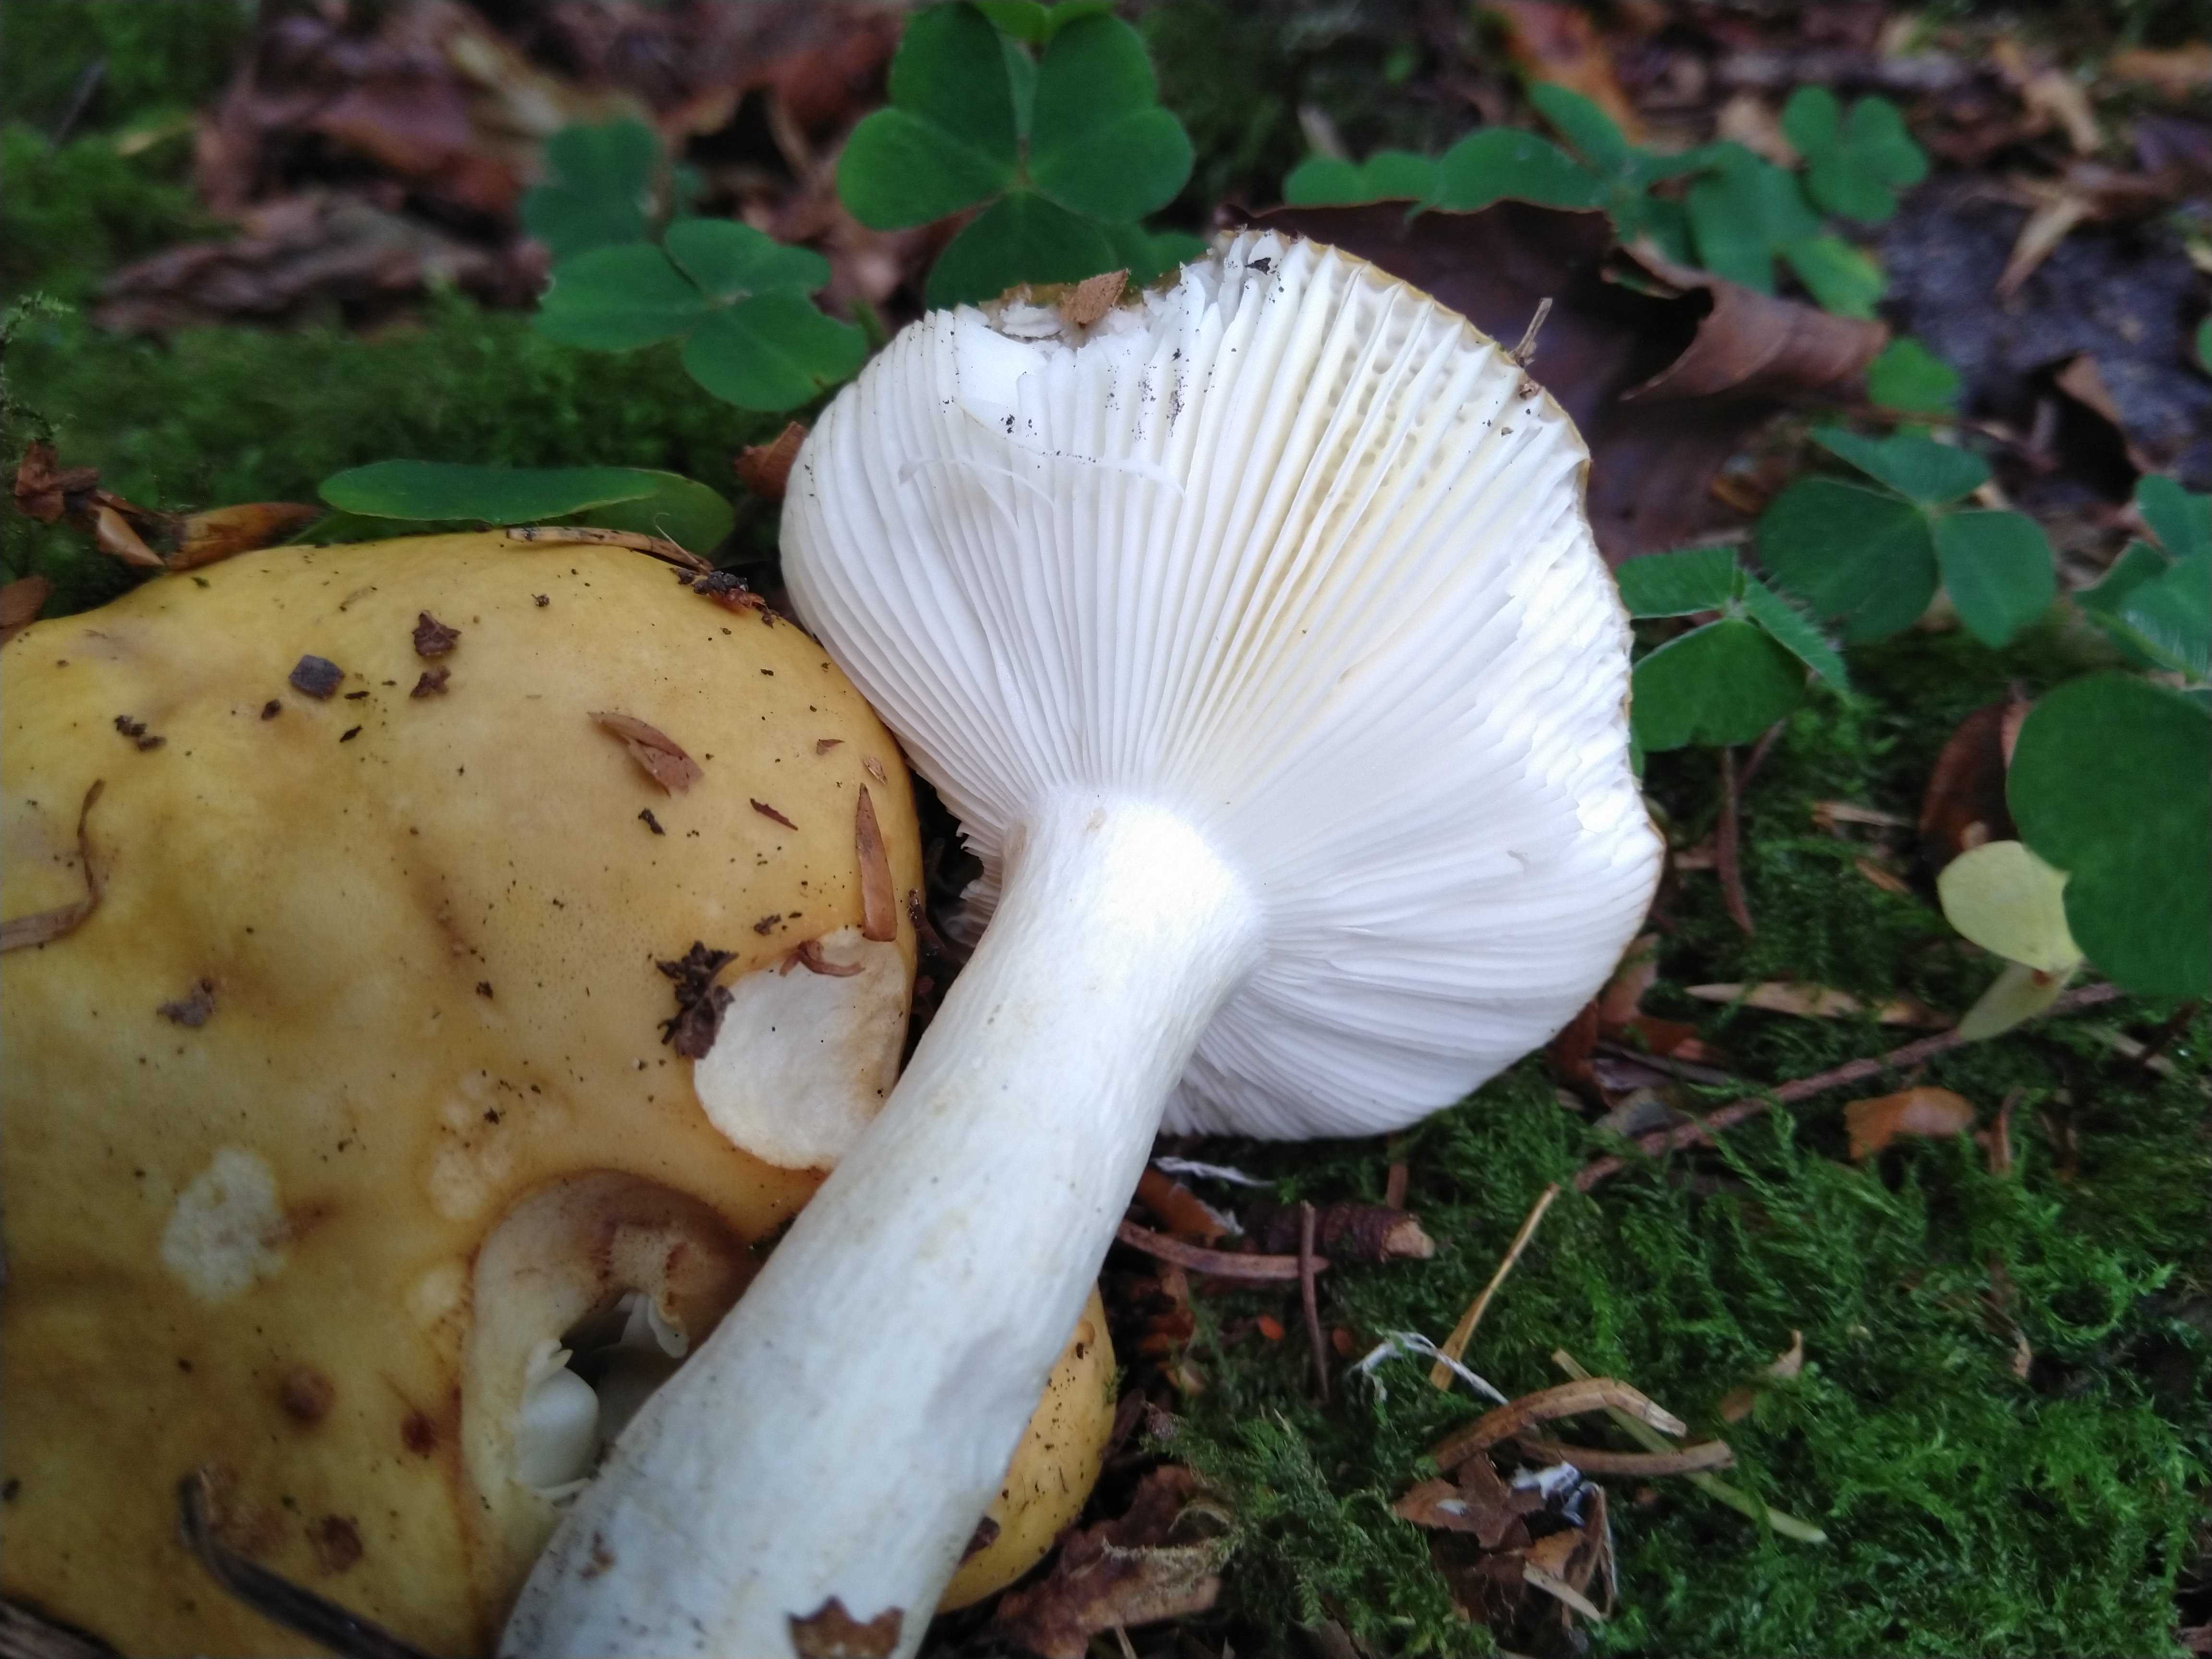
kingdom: Fungi
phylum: Basidiomycota
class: Agaricomycetes
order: Russulales
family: Russulaceae
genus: Russula
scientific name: Russula ochroleuca
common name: okkergul skørhat
